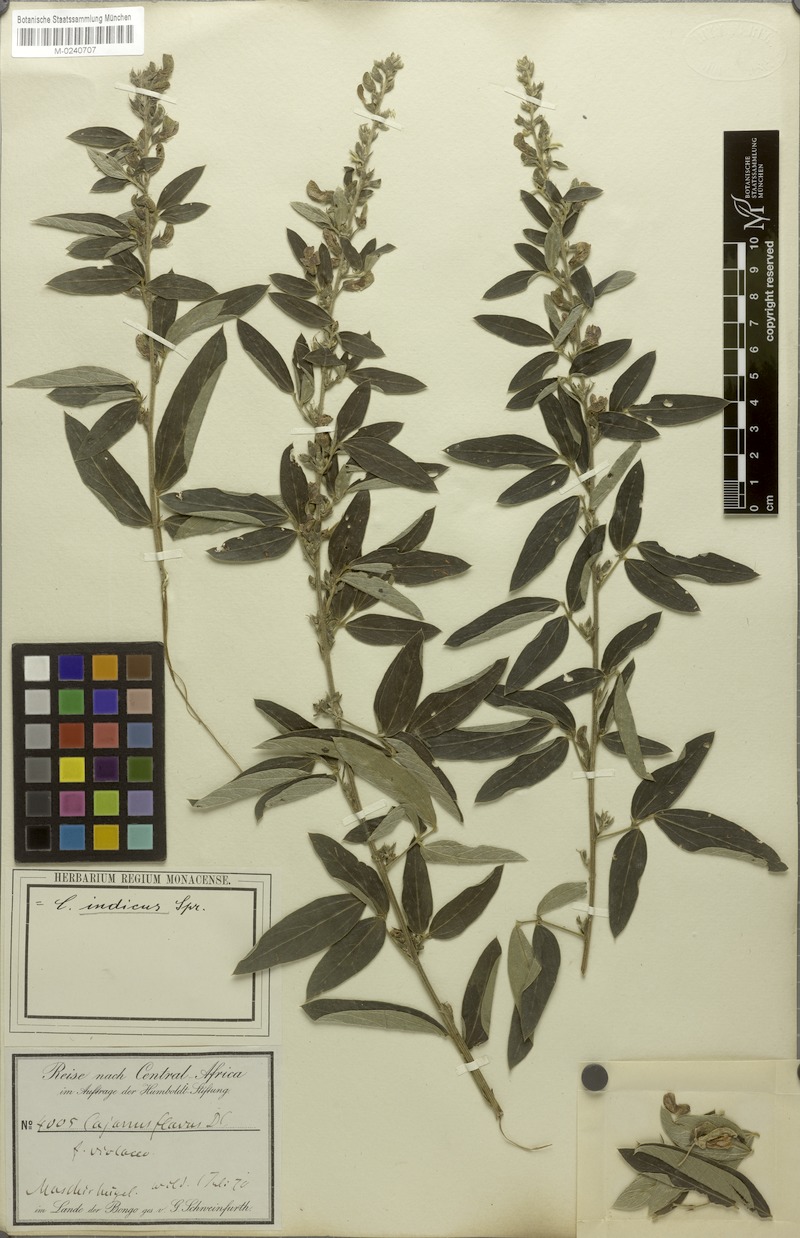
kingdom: Plantae
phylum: Tracheophyta
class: Magnoliopsida
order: Fabales
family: Fabaceae
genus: Cajanus
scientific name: Cajanus cajan
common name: Pigeonpea
